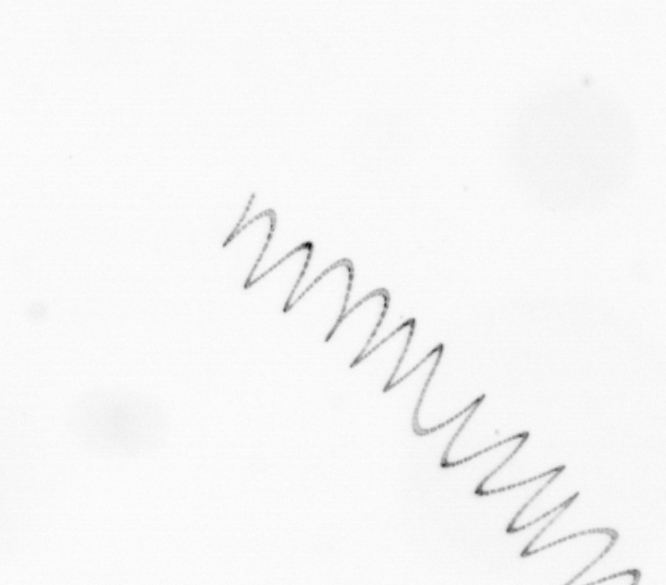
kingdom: Chromista
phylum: Ochrophyta
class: Bacillariophyceae
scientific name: Bacillariophyceae
